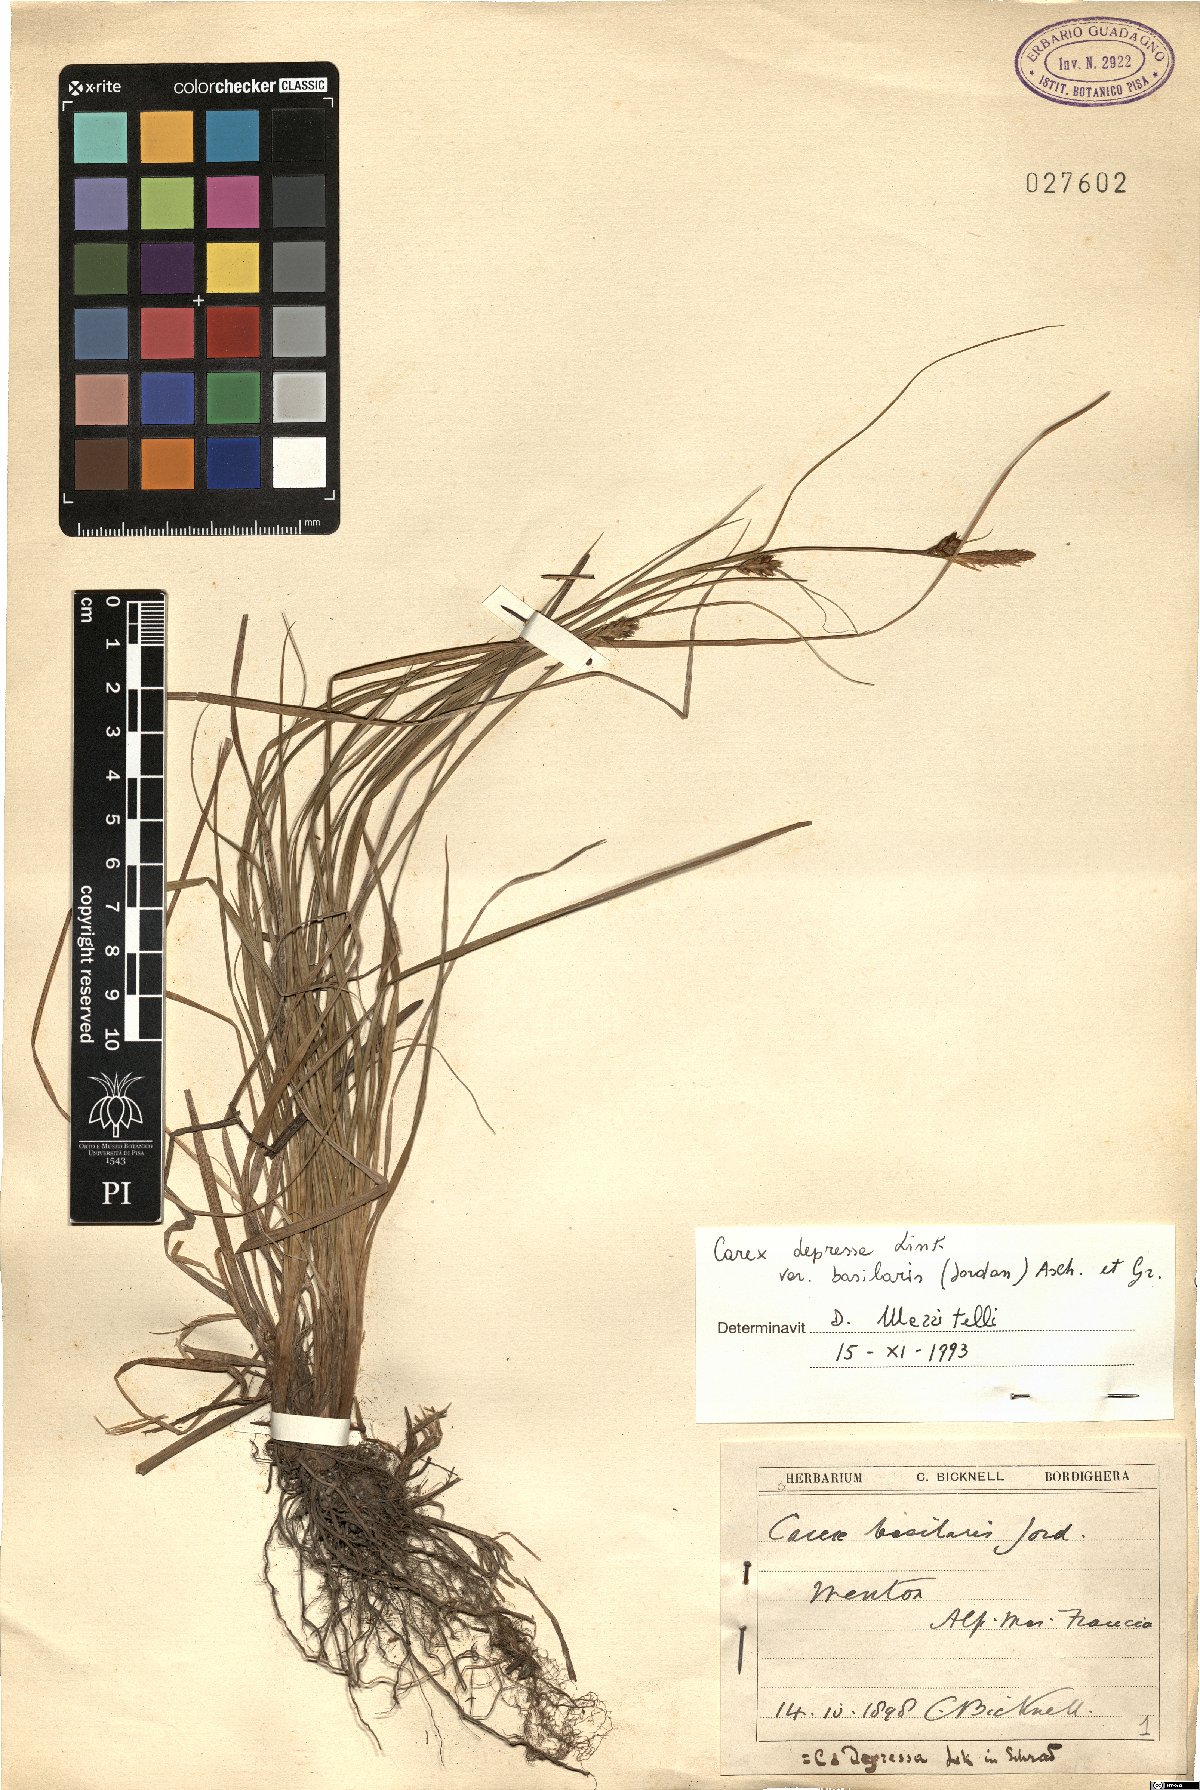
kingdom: Plantae
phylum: Tracheophyta
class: Liliopsida
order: Poales
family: Cyperaceae
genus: Carex
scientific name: Carex depressa
